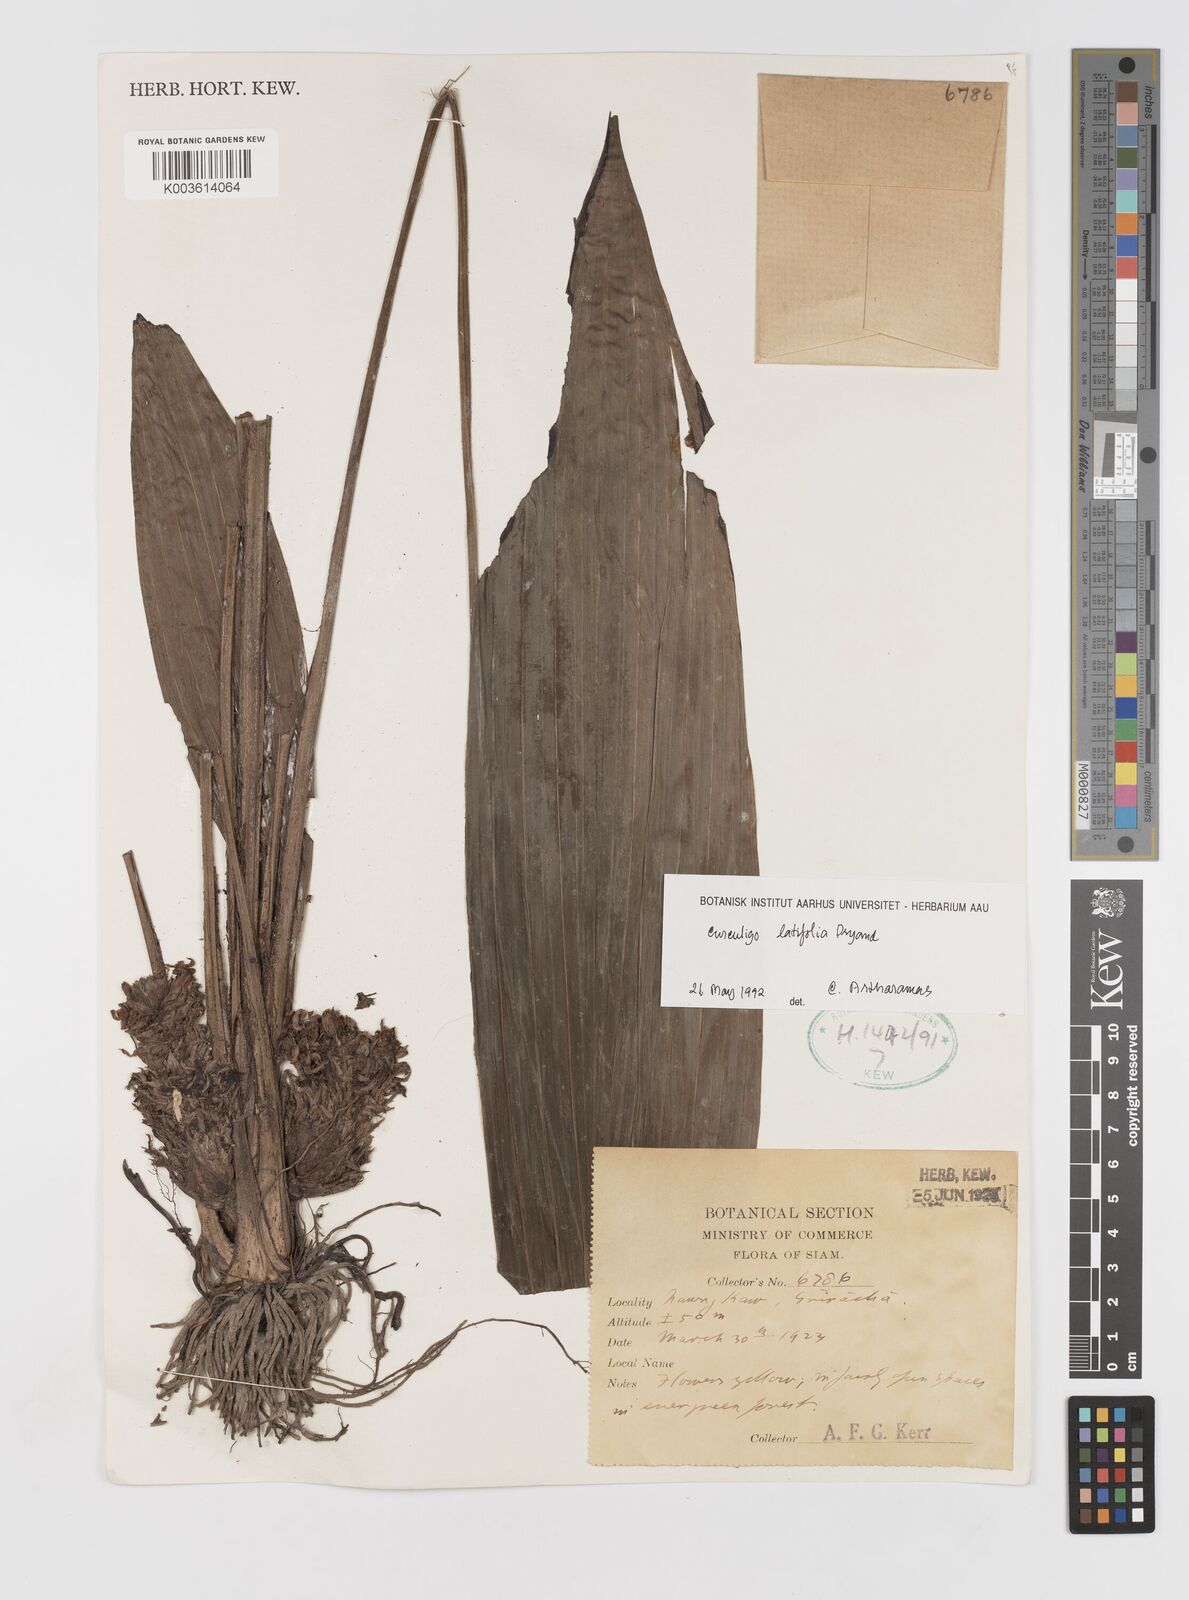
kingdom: Plantae
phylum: Tracheophyta
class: Liliopsida
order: Asparagales
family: Hypoxidaceae
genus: Curculigo
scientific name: Curculigo latifolia
